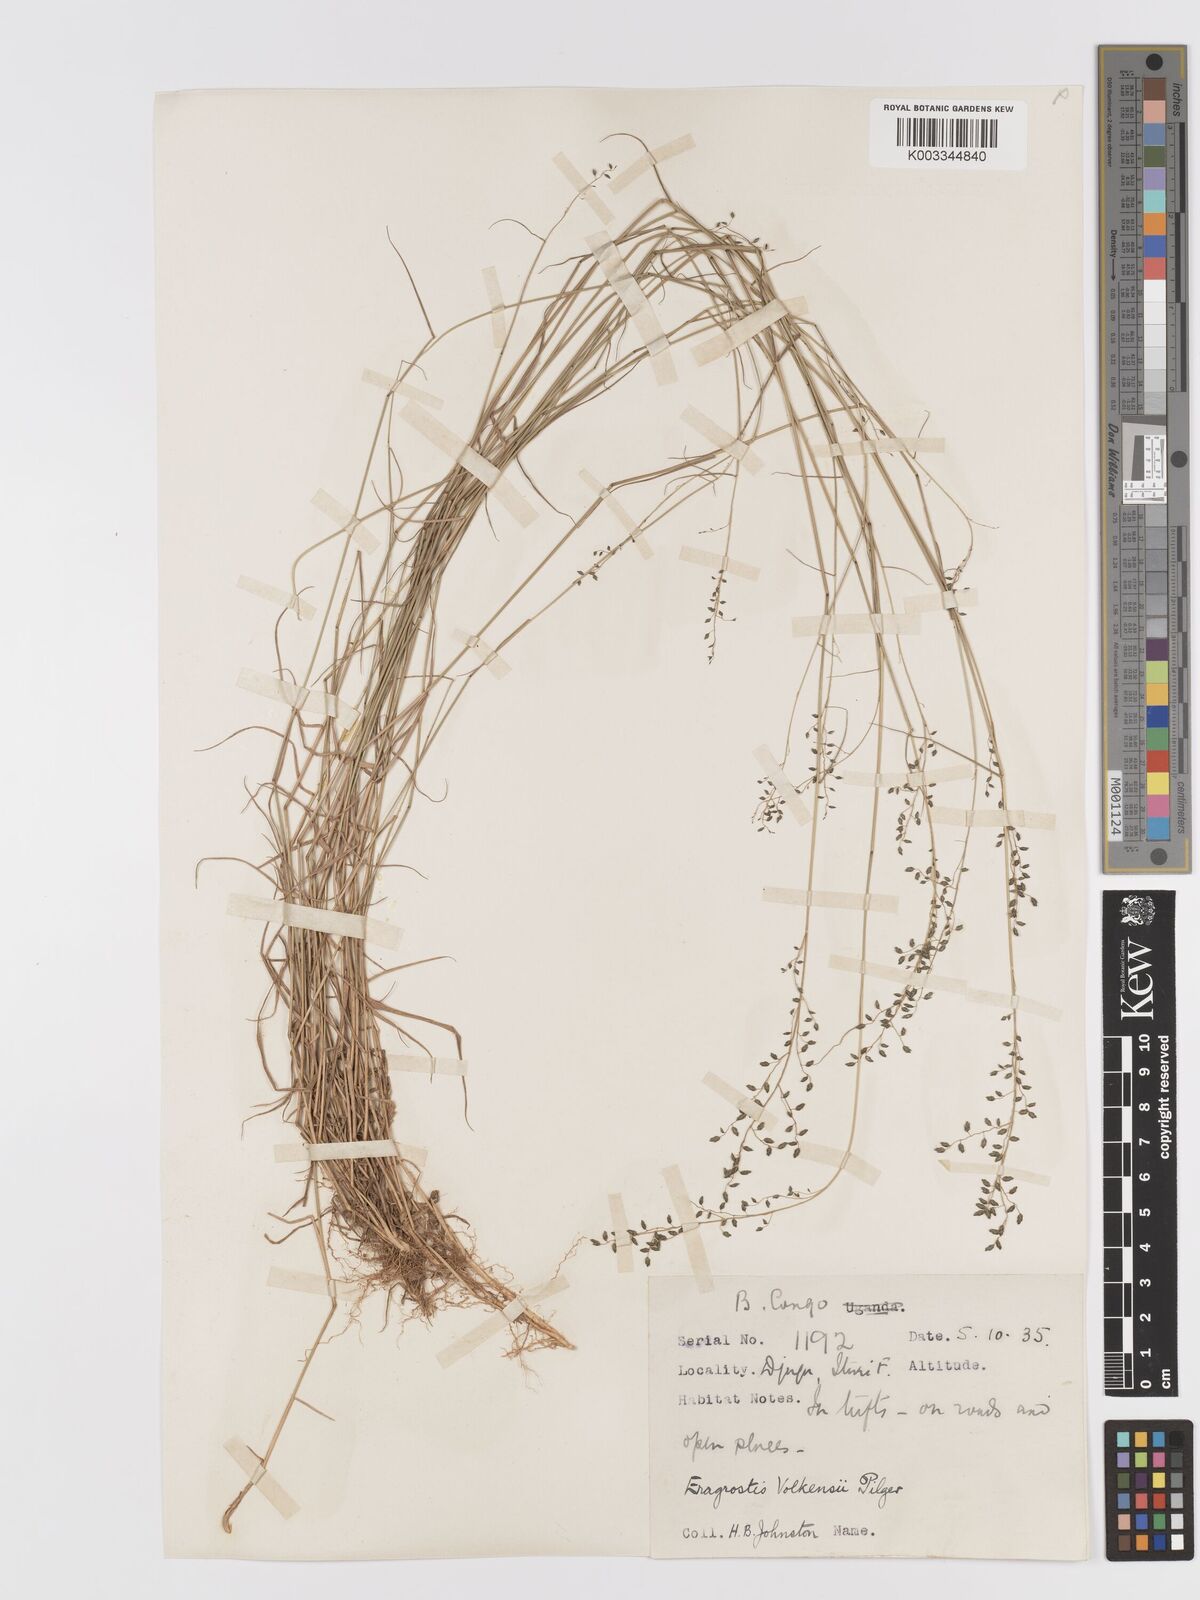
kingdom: Plantae
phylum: Tracheophyta
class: Liliopsida
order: Poales
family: Poaceae
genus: Eragrostis
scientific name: Eragrostis volkensii
